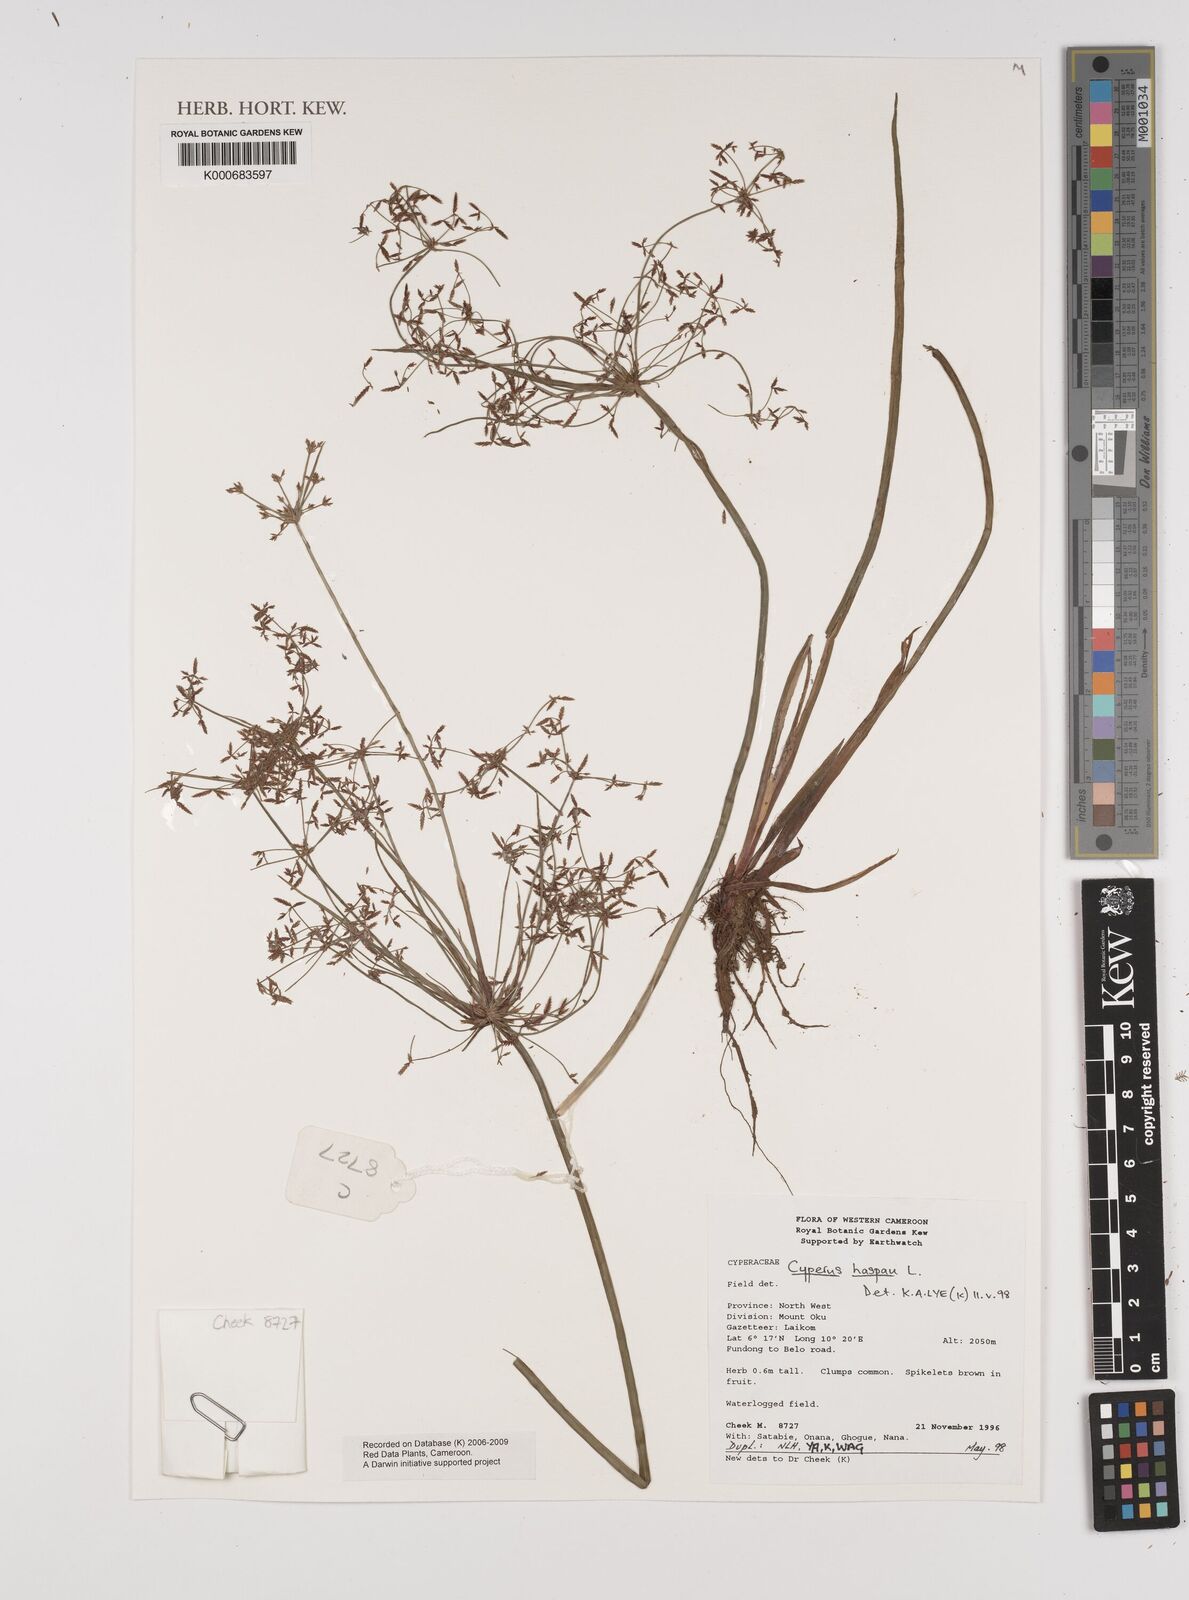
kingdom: Plantae
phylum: Tracheophyta
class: Liliopsida
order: Poales
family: Cyperaceae
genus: Cyperus
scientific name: Cyperus haspan
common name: Haspan flatsedge
